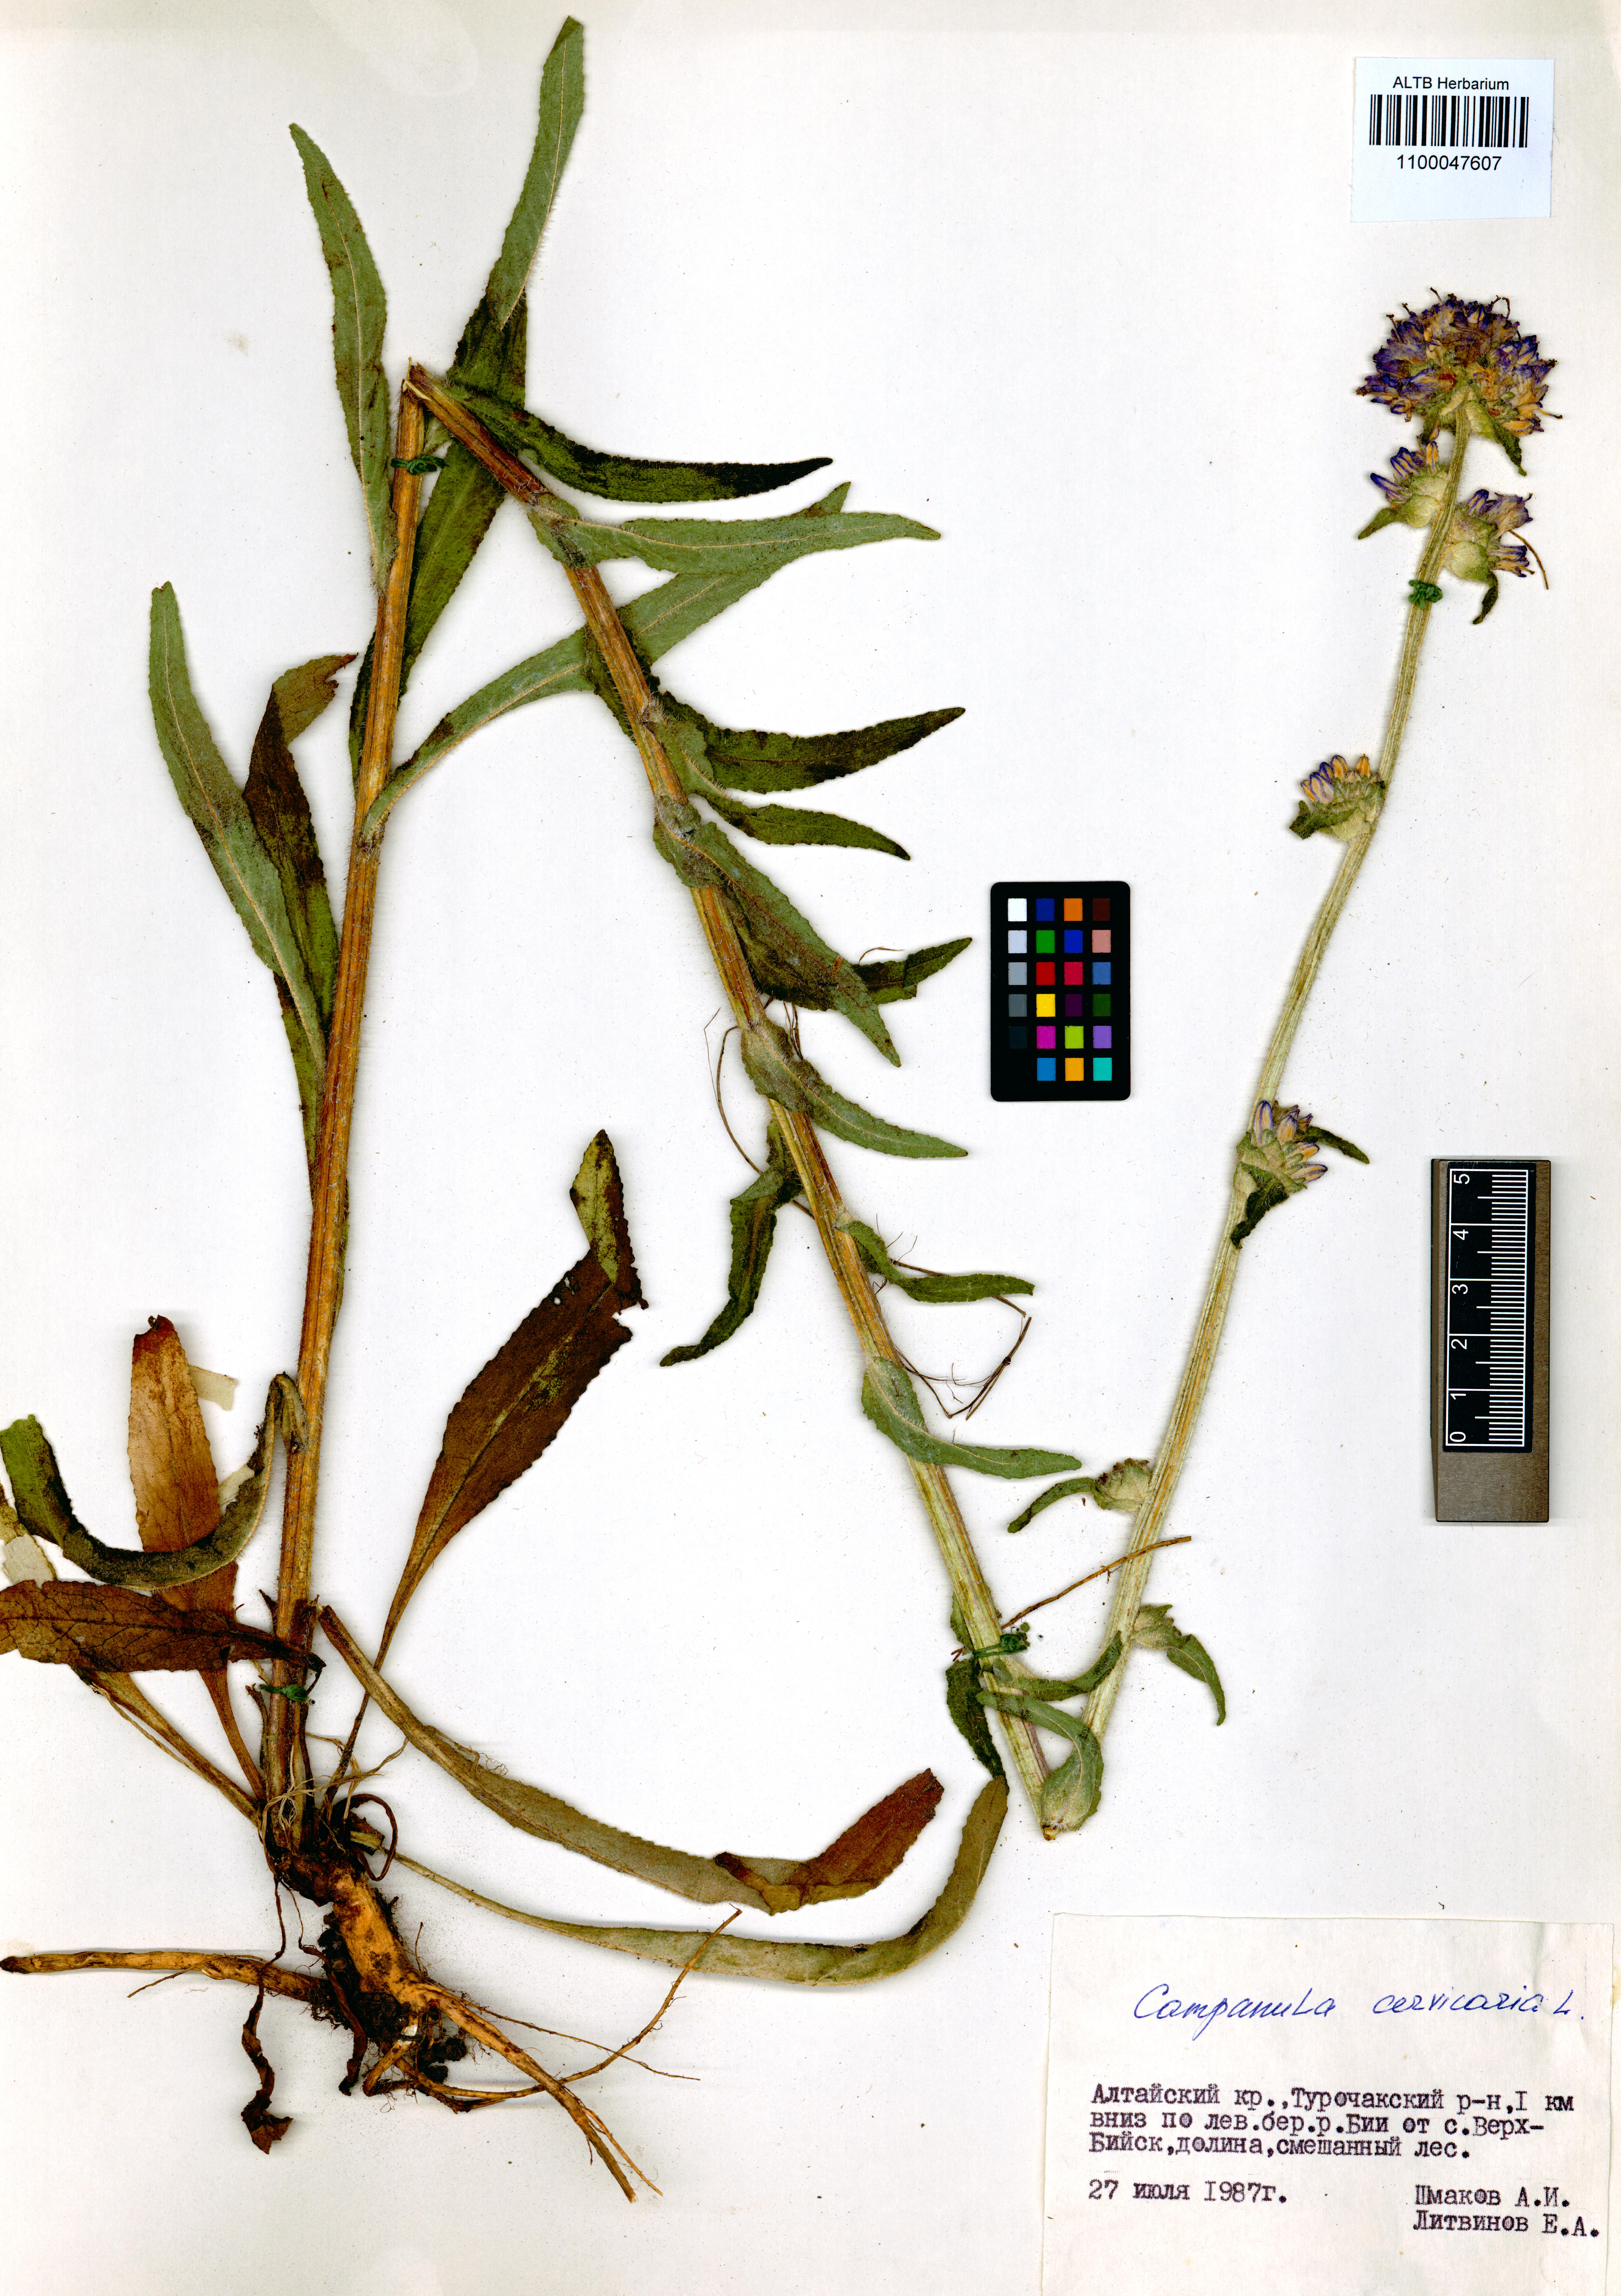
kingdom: Plantae
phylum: Tracheophyta
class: Magnoliopsida
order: Asterales
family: Campanulaceae
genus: Campanula
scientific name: Campanula cervicaria
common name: Bristly bellflower
